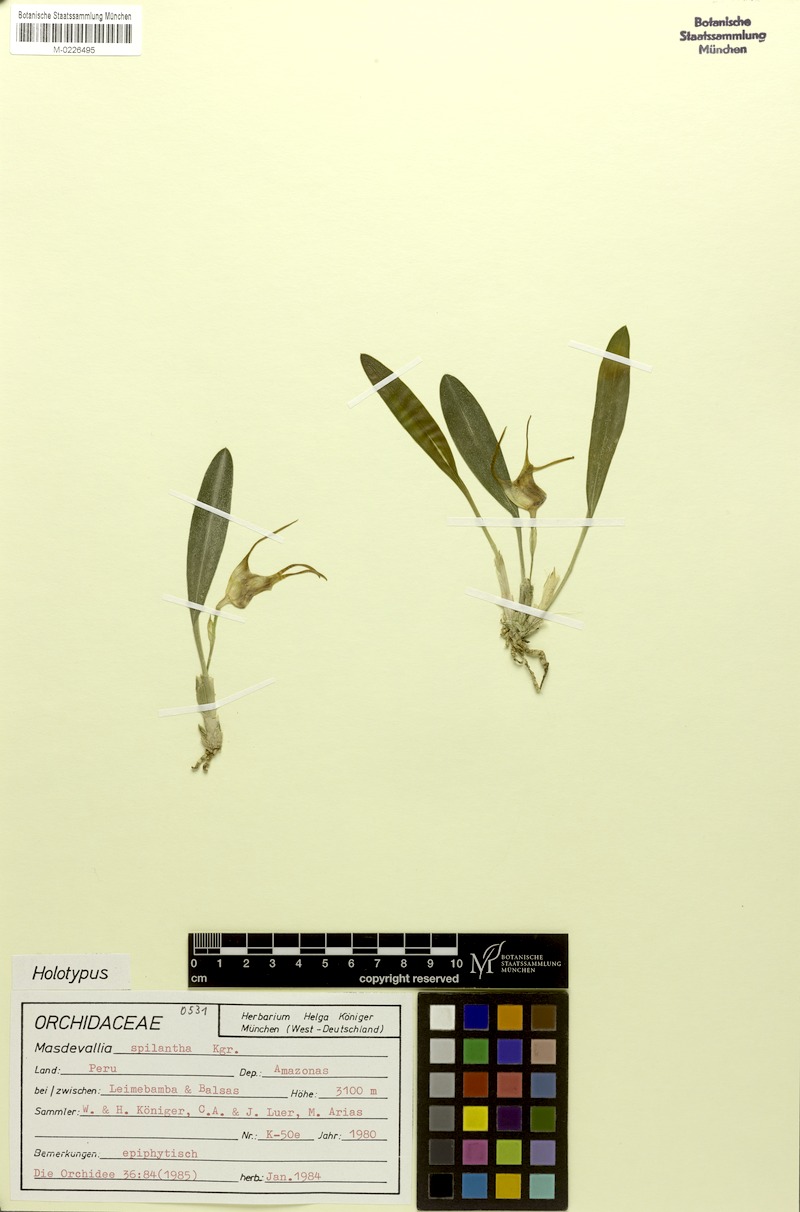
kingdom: Plantae
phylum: Tracheophyta
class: Liliopsida
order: Asparagales
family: Orchidaceae
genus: Masdevallia
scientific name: Masdevallia spilantha
